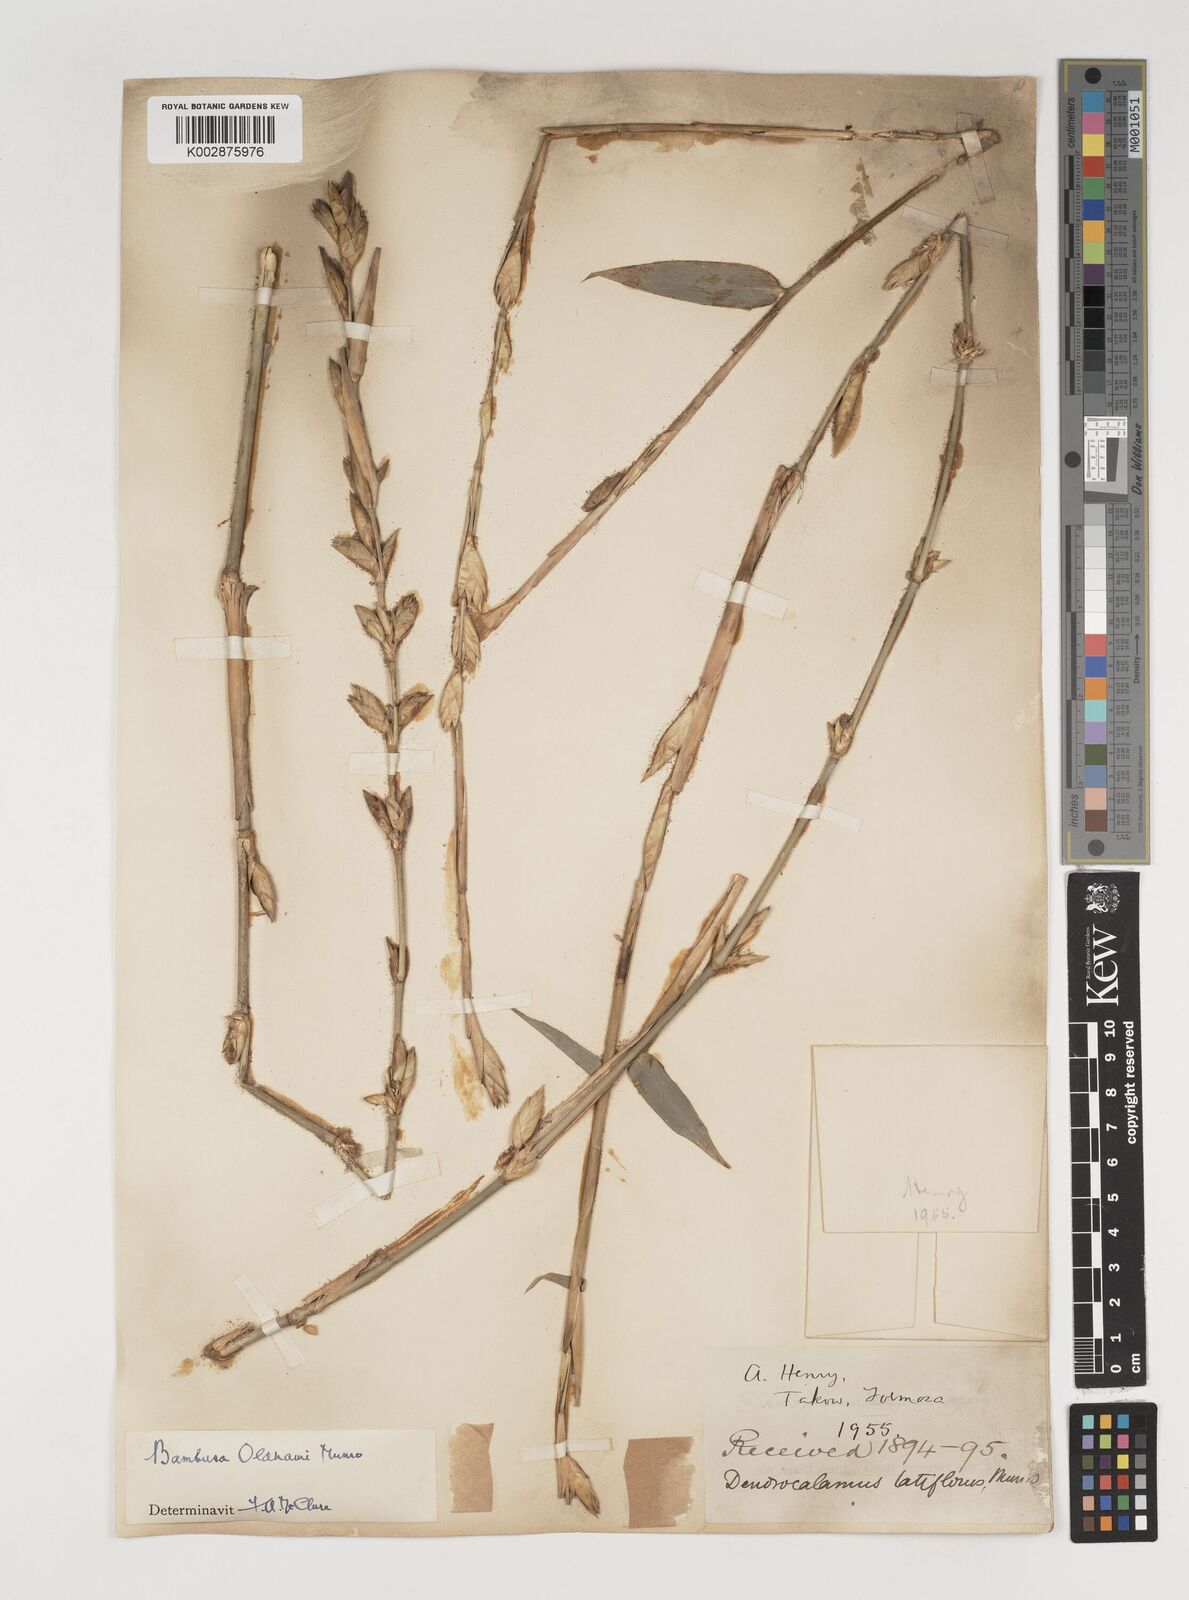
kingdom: Plantae
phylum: Tracheophyta
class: Liliopsida
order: Poales
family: Poaceae
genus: Bambusa
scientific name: Bambusa oldhamii
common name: Giant timber bamboo
